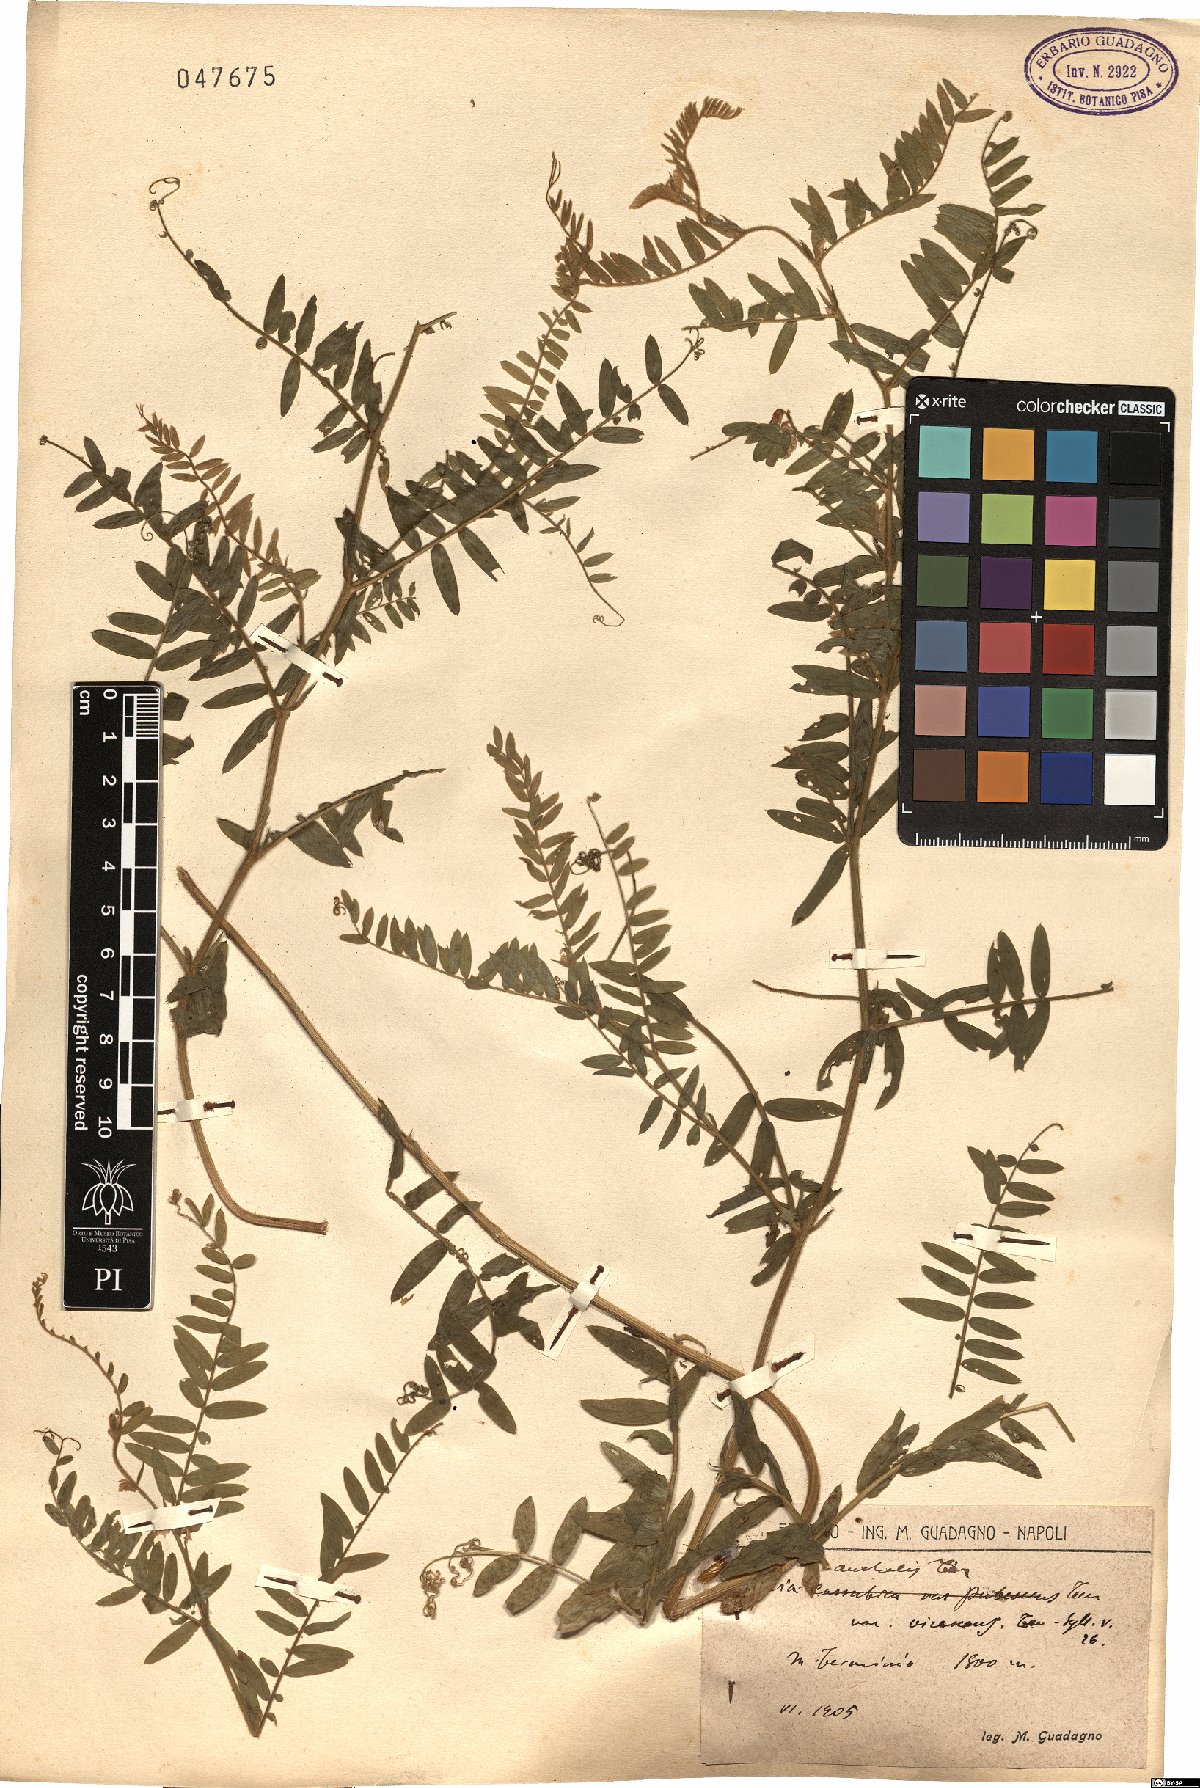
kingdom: Plantae
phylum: Tracheophyta
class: Magnoliopsida
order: Fabales
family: Fabaceae
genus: Vicia
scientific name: Vicia cracca
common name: Bird vetch
